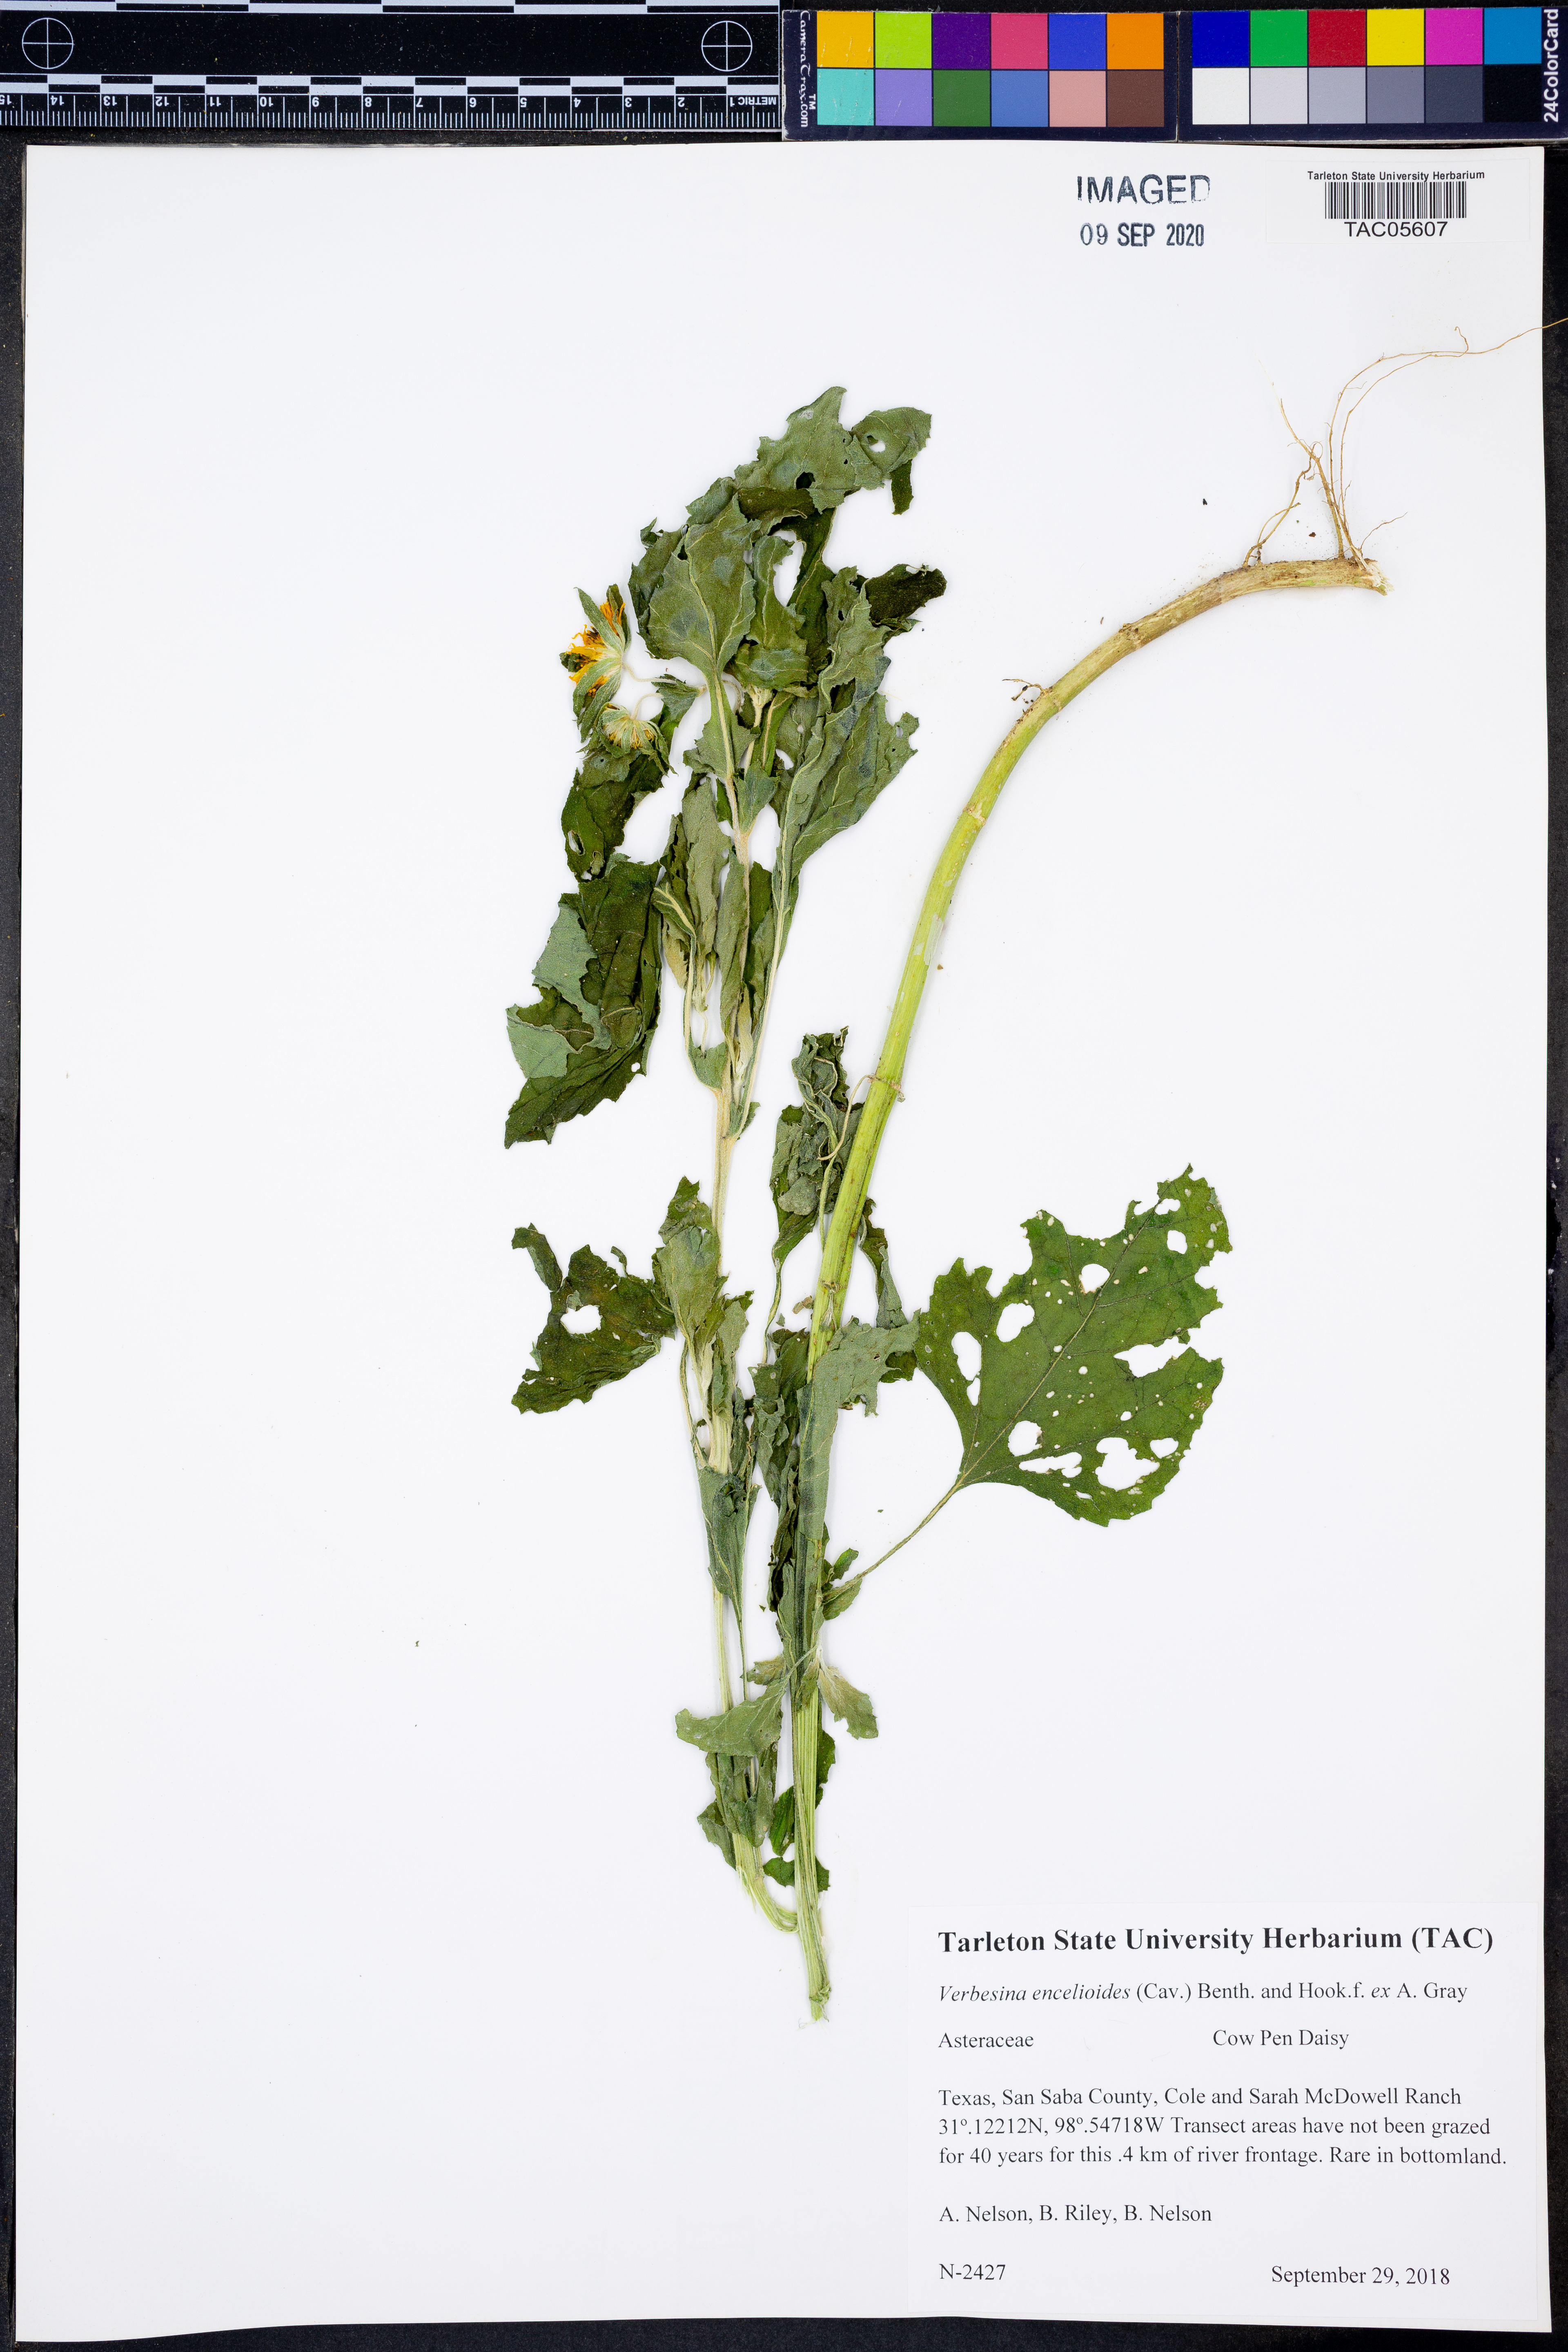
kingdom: Plantae
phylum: Tracheophyta
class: Magnoliopsida
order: Asterales
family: Asteraceae
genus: Verbesina
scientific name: Verbesina encelioides
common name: Golden crownbeard
